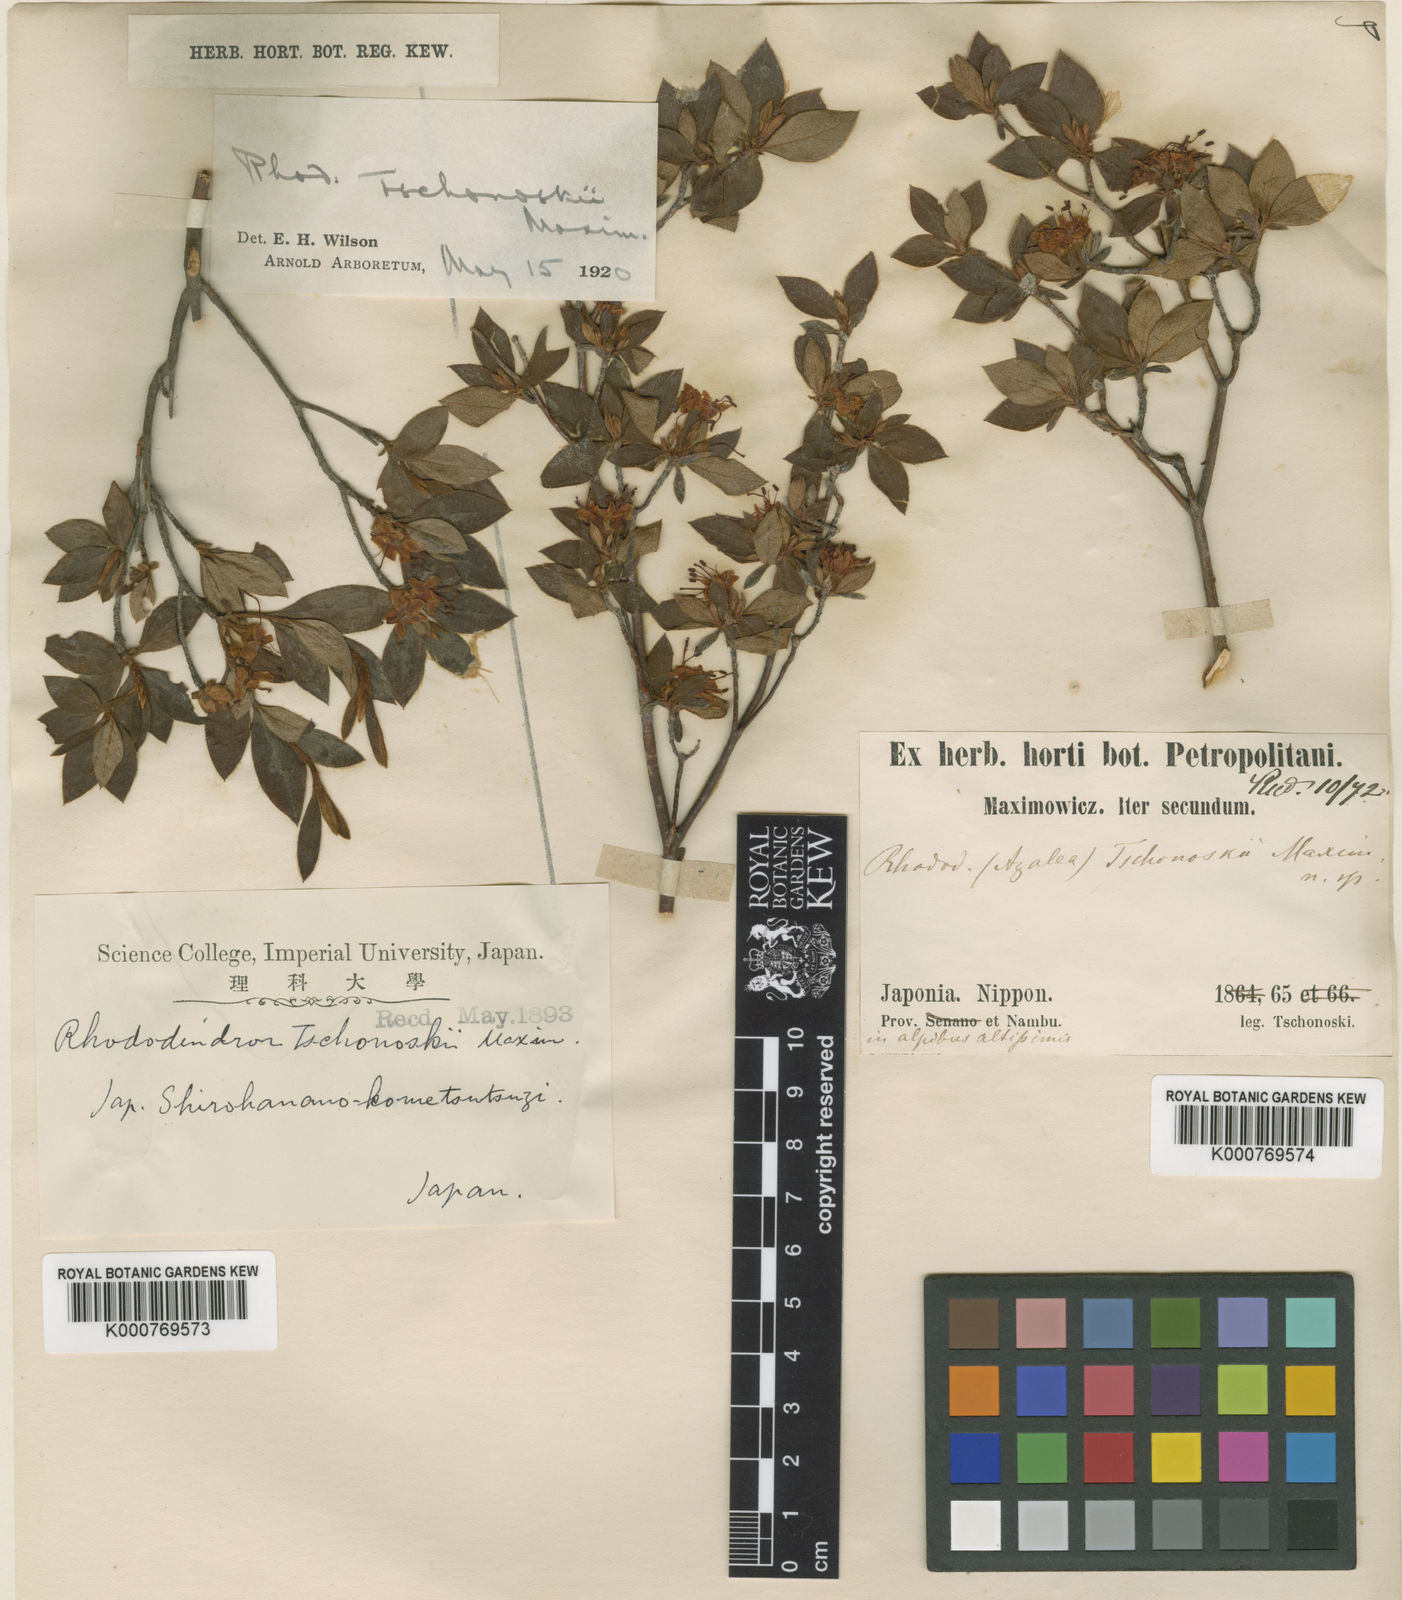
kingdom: Plantae
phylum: Tracheophyta
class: Magnoliopsida
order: Ericales
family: Ericaceae
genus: Rhododendron
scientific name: Rhododendron tschonoskii
